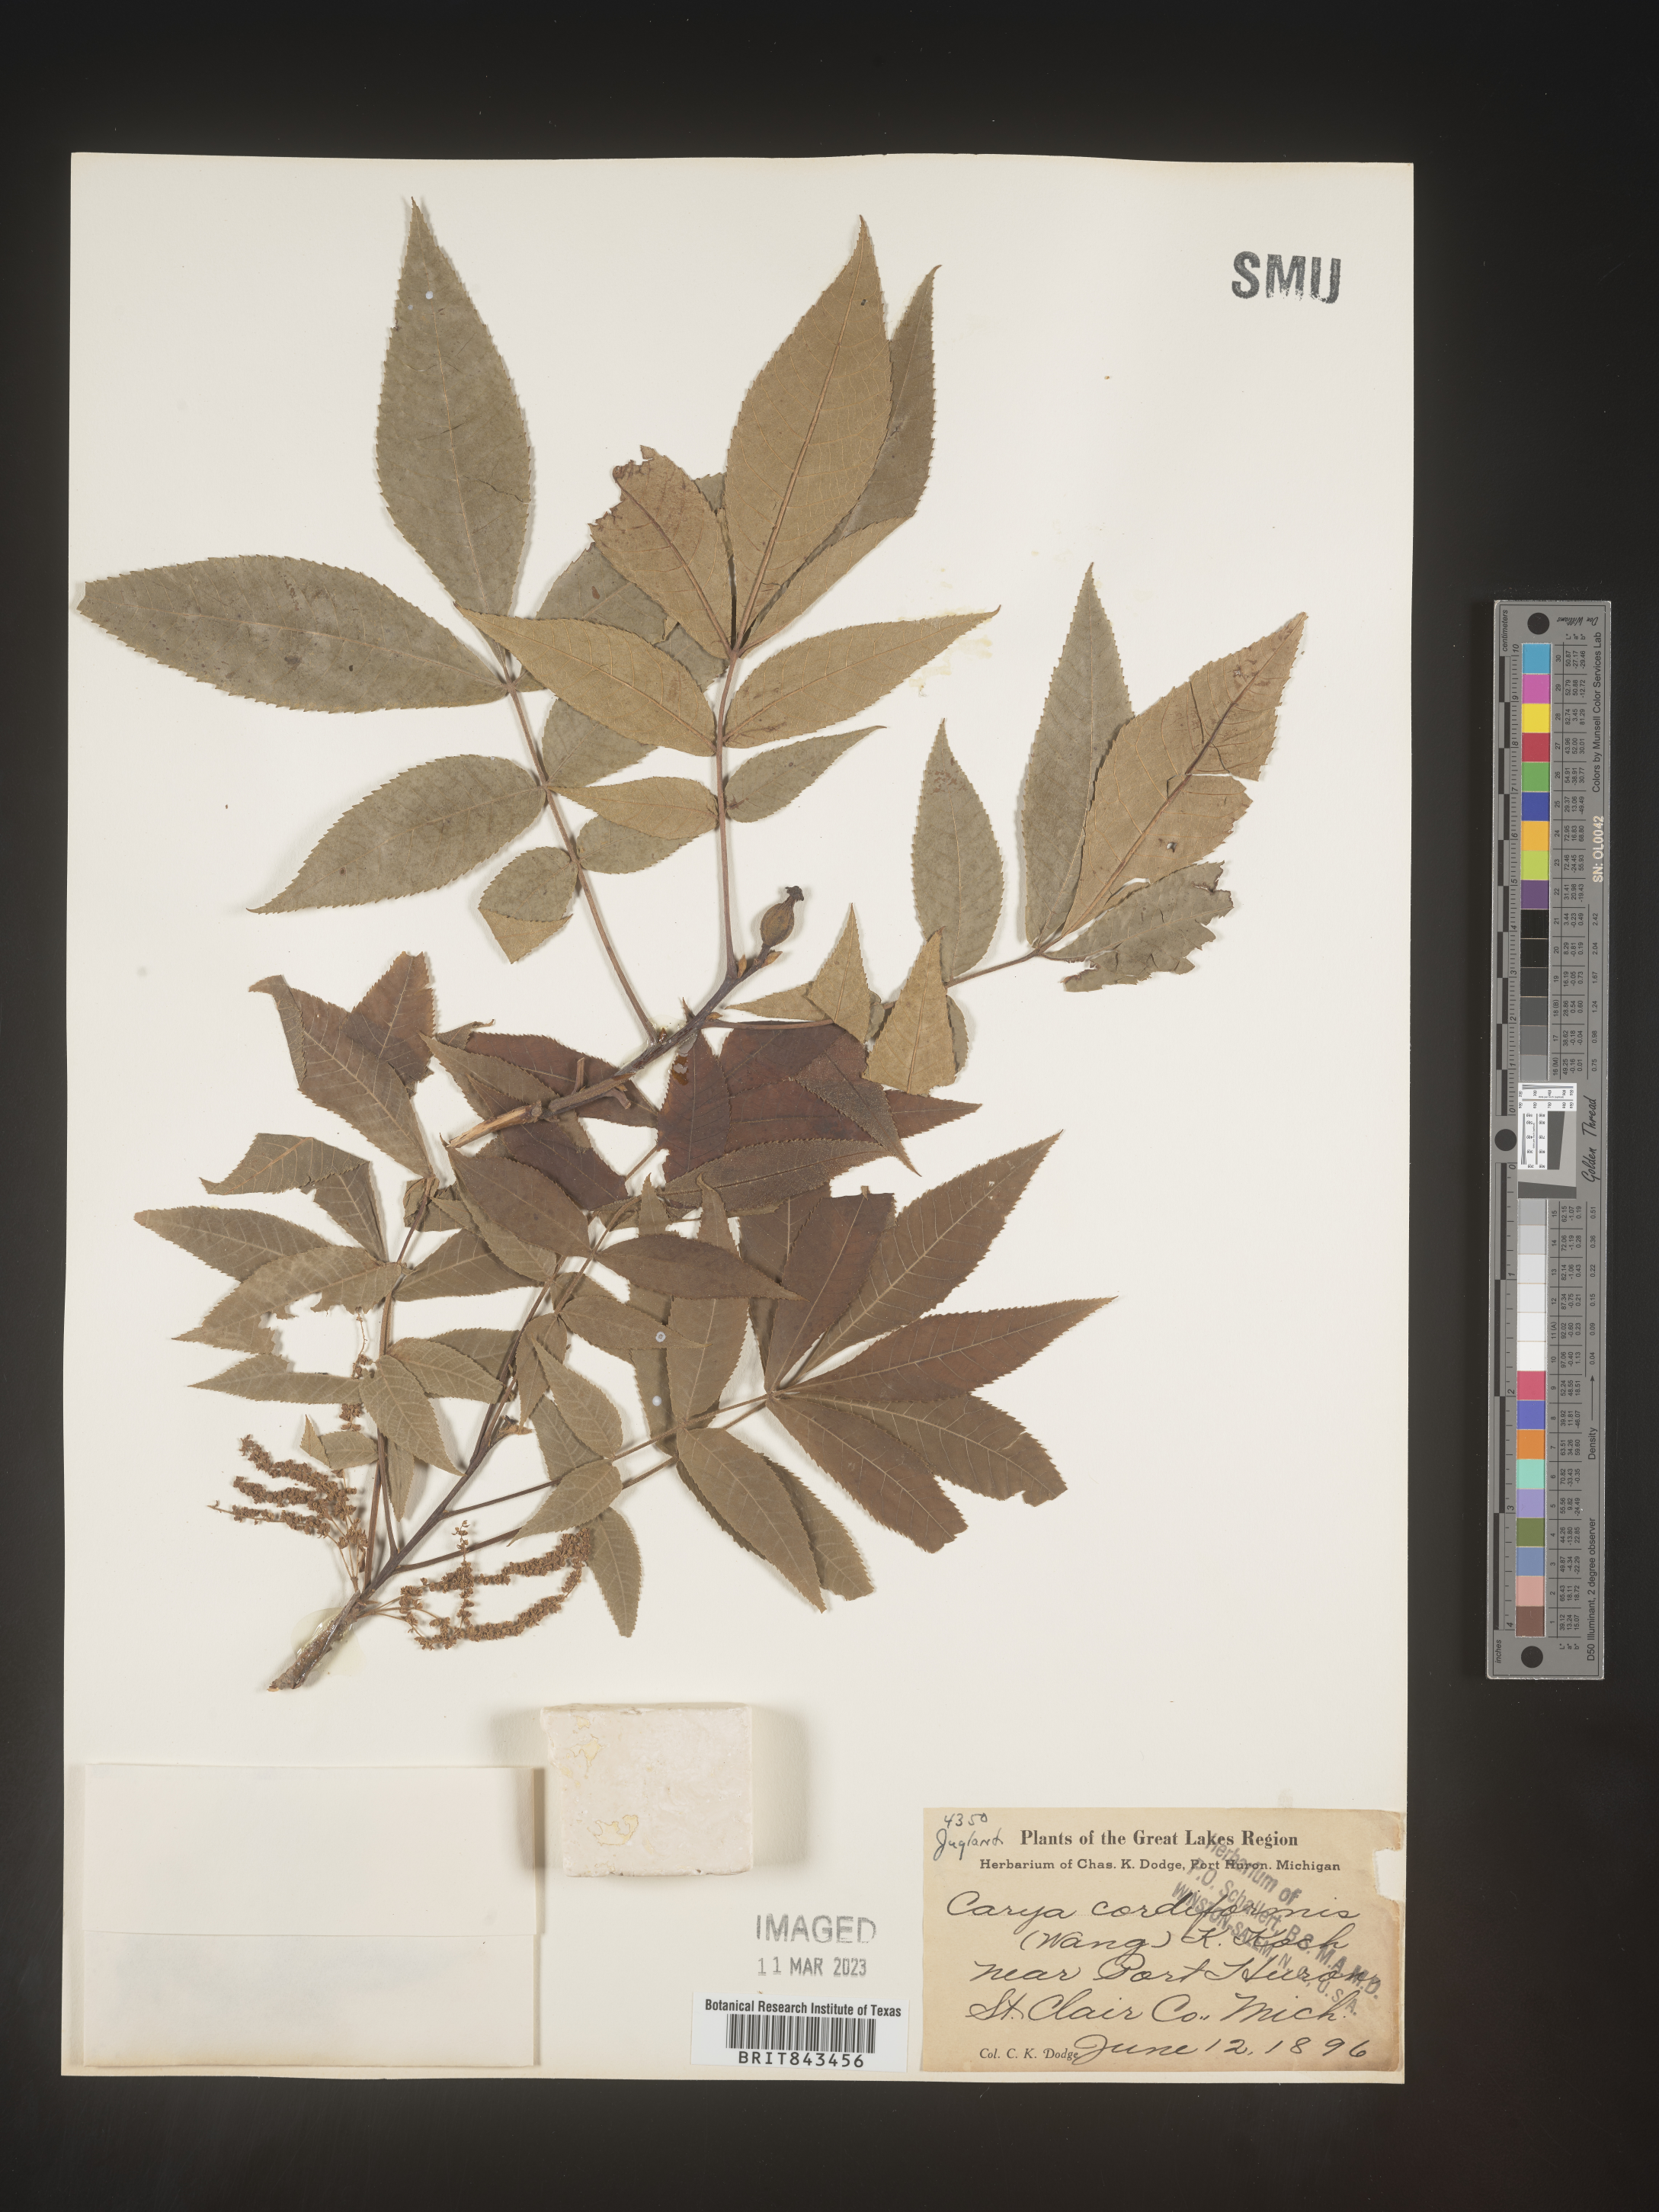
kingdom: Plantae
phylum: Tracheophyta
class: Magnoliopsida
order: Fagales
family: Juglandaceae
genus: Carya
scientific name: Carya cordiformis
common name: Bitternut hickory
